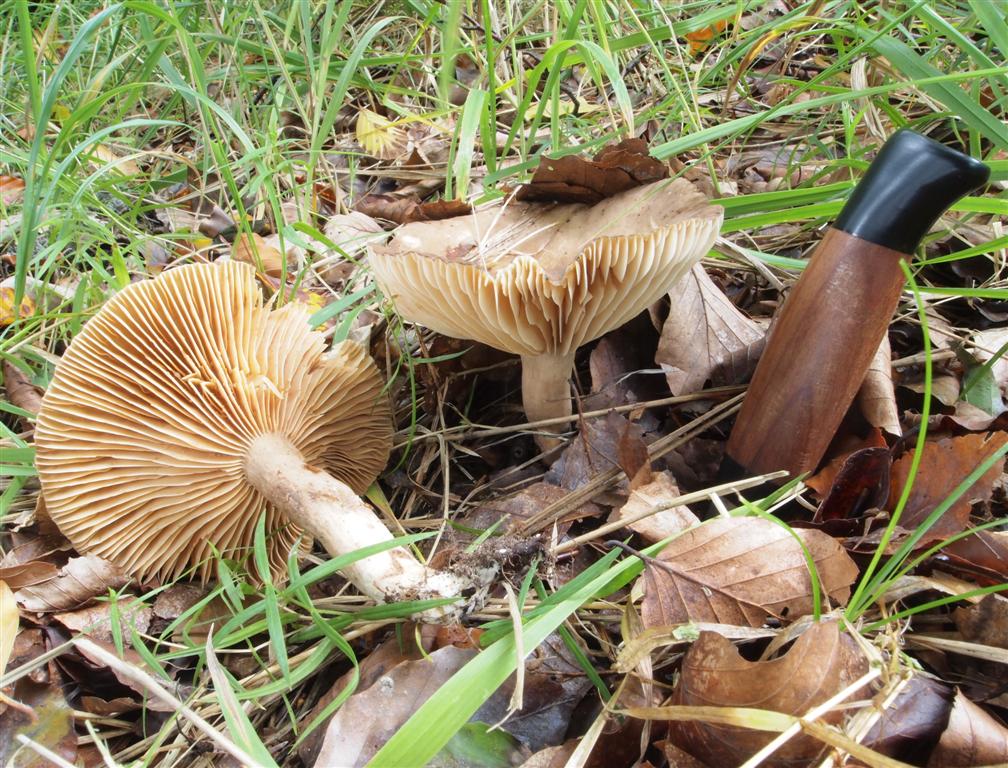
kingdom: Fungi
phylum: Basidiomycota
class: Agaricomycetes
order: Russulales
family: Russulaceae
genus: Lactarius
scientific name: Lactarius romagnesii
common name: fjernbladet mælkehat
